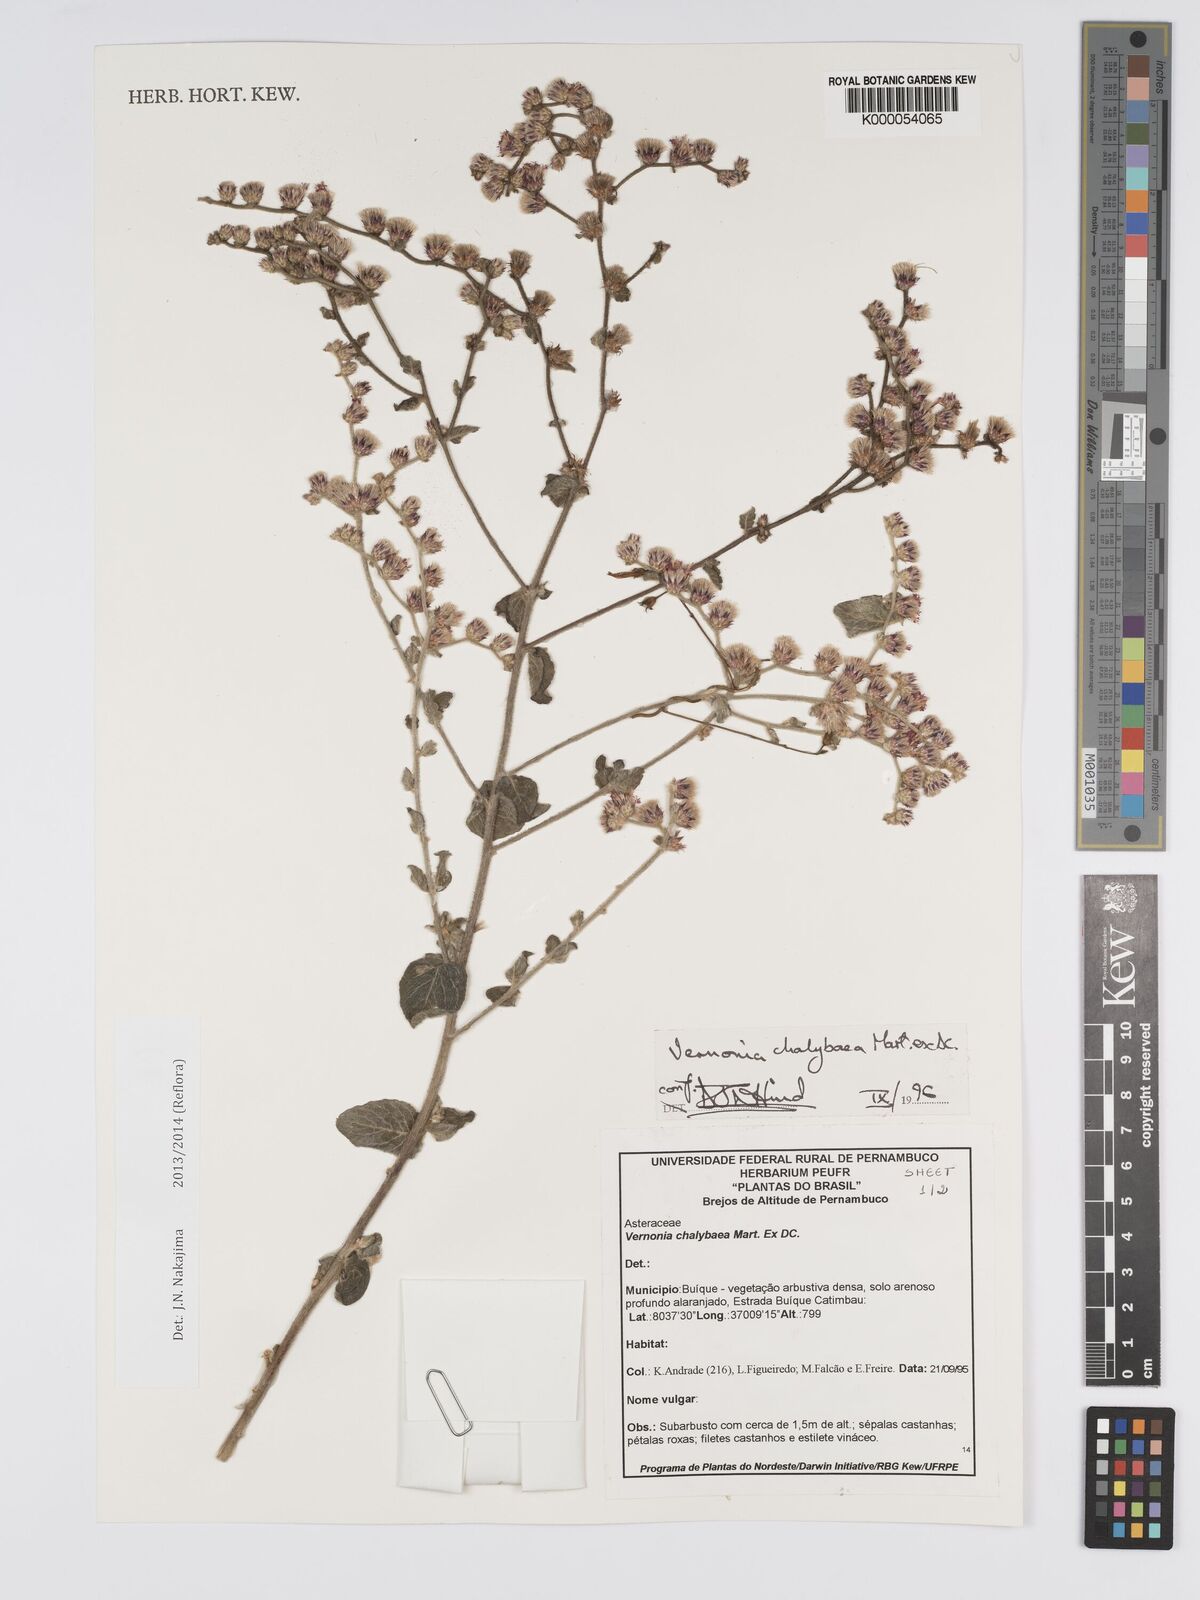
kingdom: Plantae
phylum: Tracheophyta
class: Magnoliopsida
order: Asterales
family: Asteraceae
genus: Lepidaploa
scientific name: Lepidaploa chalybaea
